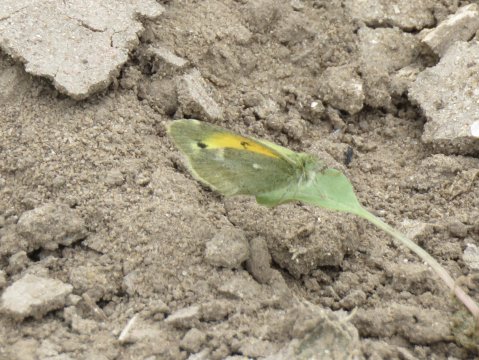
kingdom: Animalia
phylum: Arthropoda
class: Insecta
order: Lepidoptera
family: Pieridae
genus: Nathalis
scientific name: Nathalis iole
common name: Dainty Sulphur
